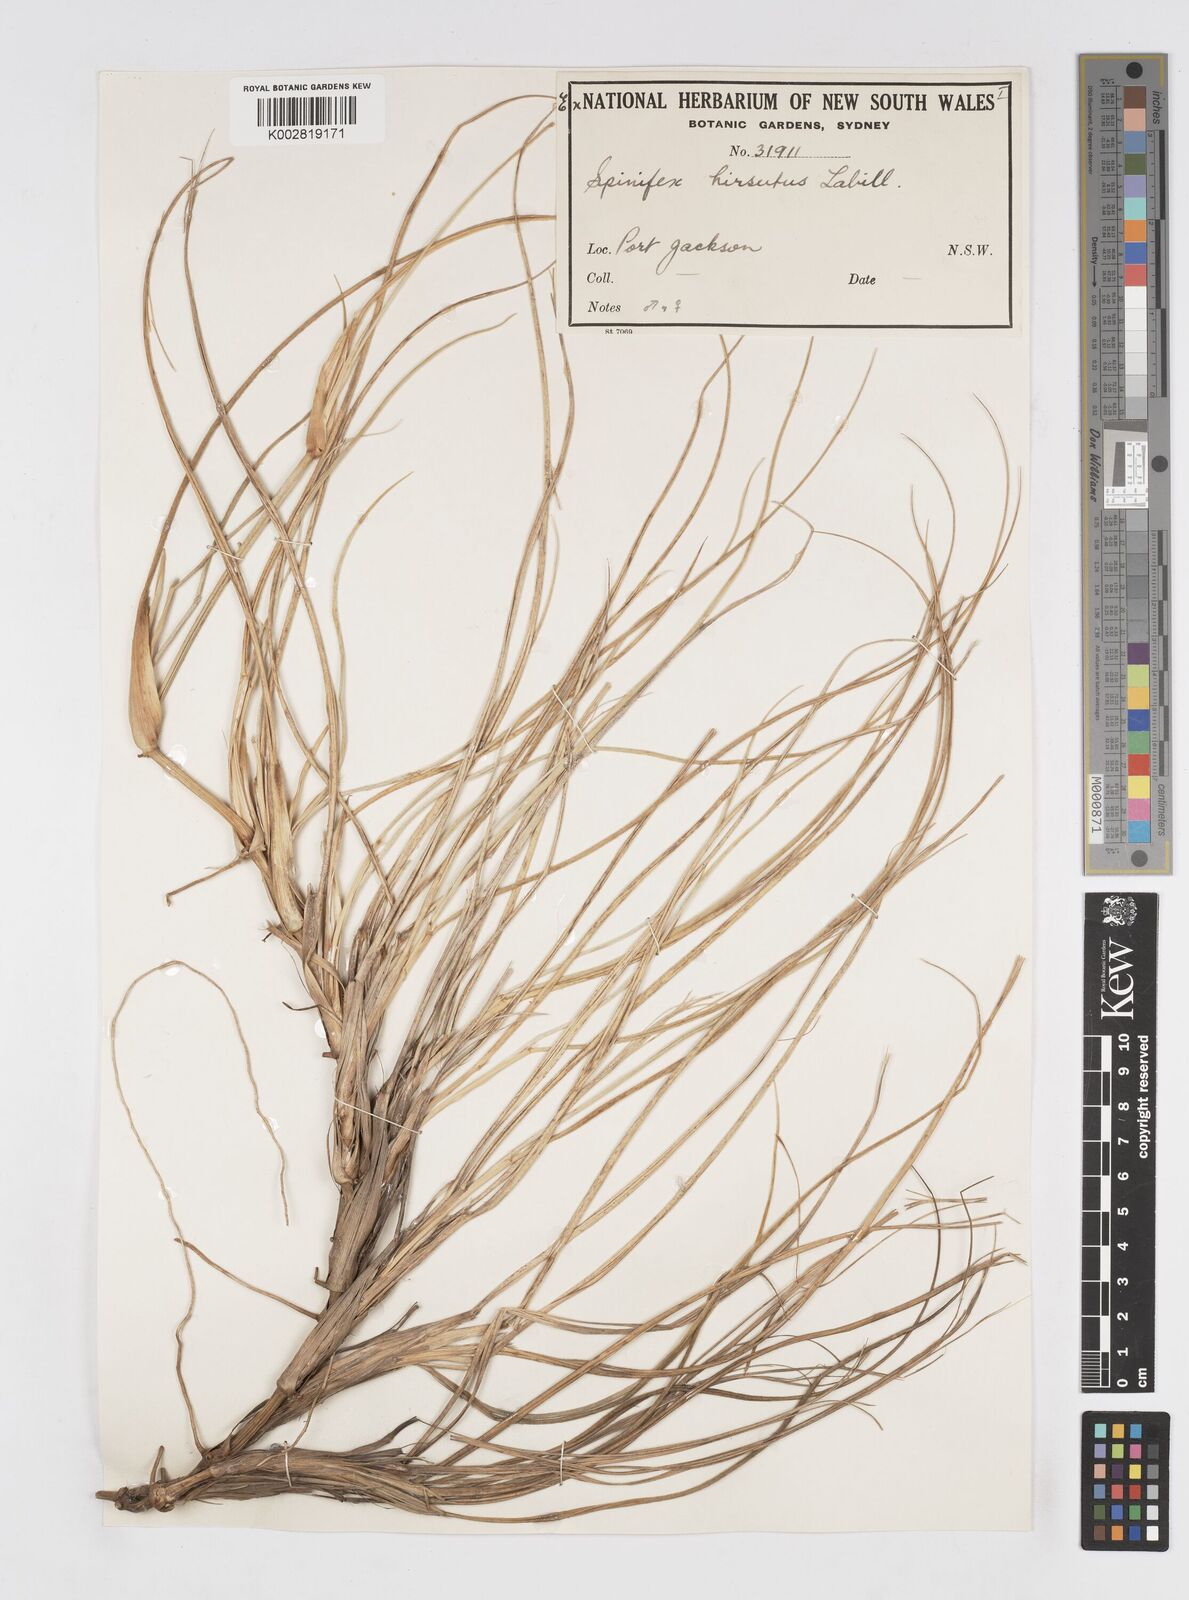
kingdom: Plantae
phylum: Tracheophyta
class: Liliopsida
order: Poales
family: Poaceae
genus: Spinifex
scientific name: Spinifex hirsutus
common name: Hairy spinifex
